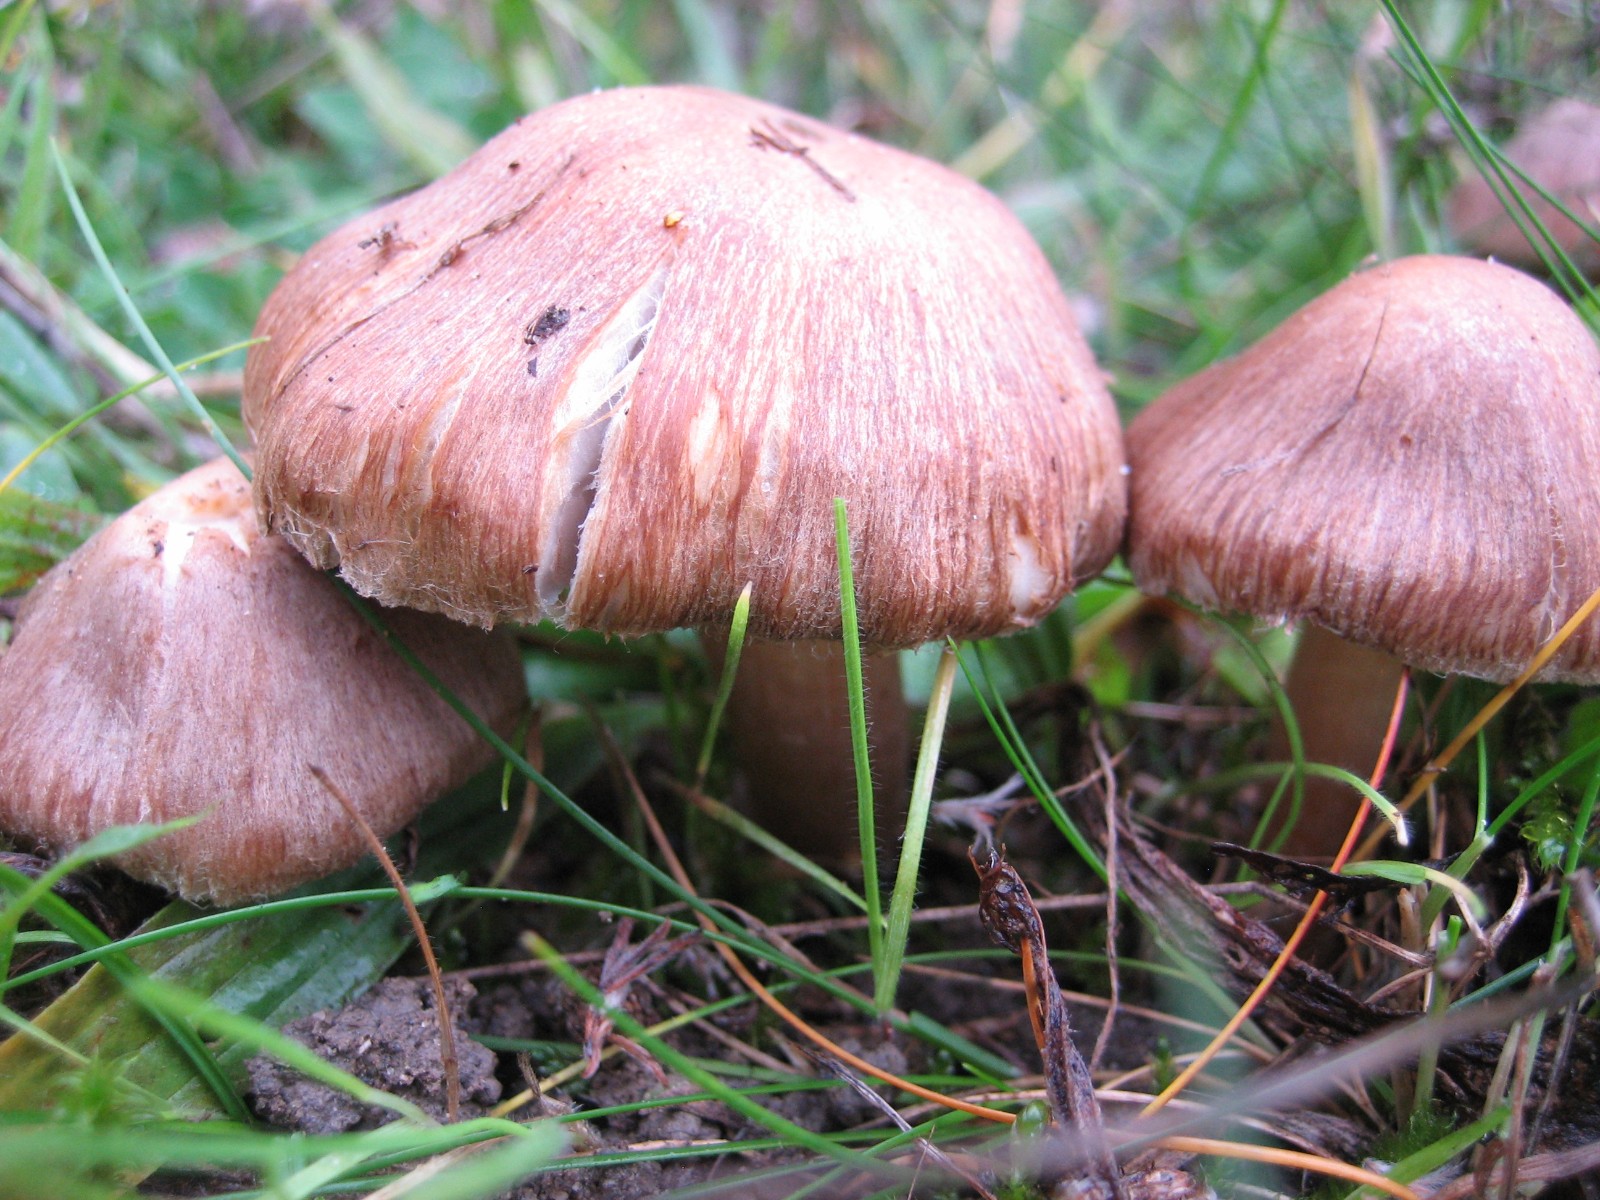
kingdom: Fungi
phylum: Basidiomycota
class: Agaricomycetes
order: Agaricales
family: Inocybaceae
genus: Inocybe
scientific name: Inocybe
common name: trævlhat
